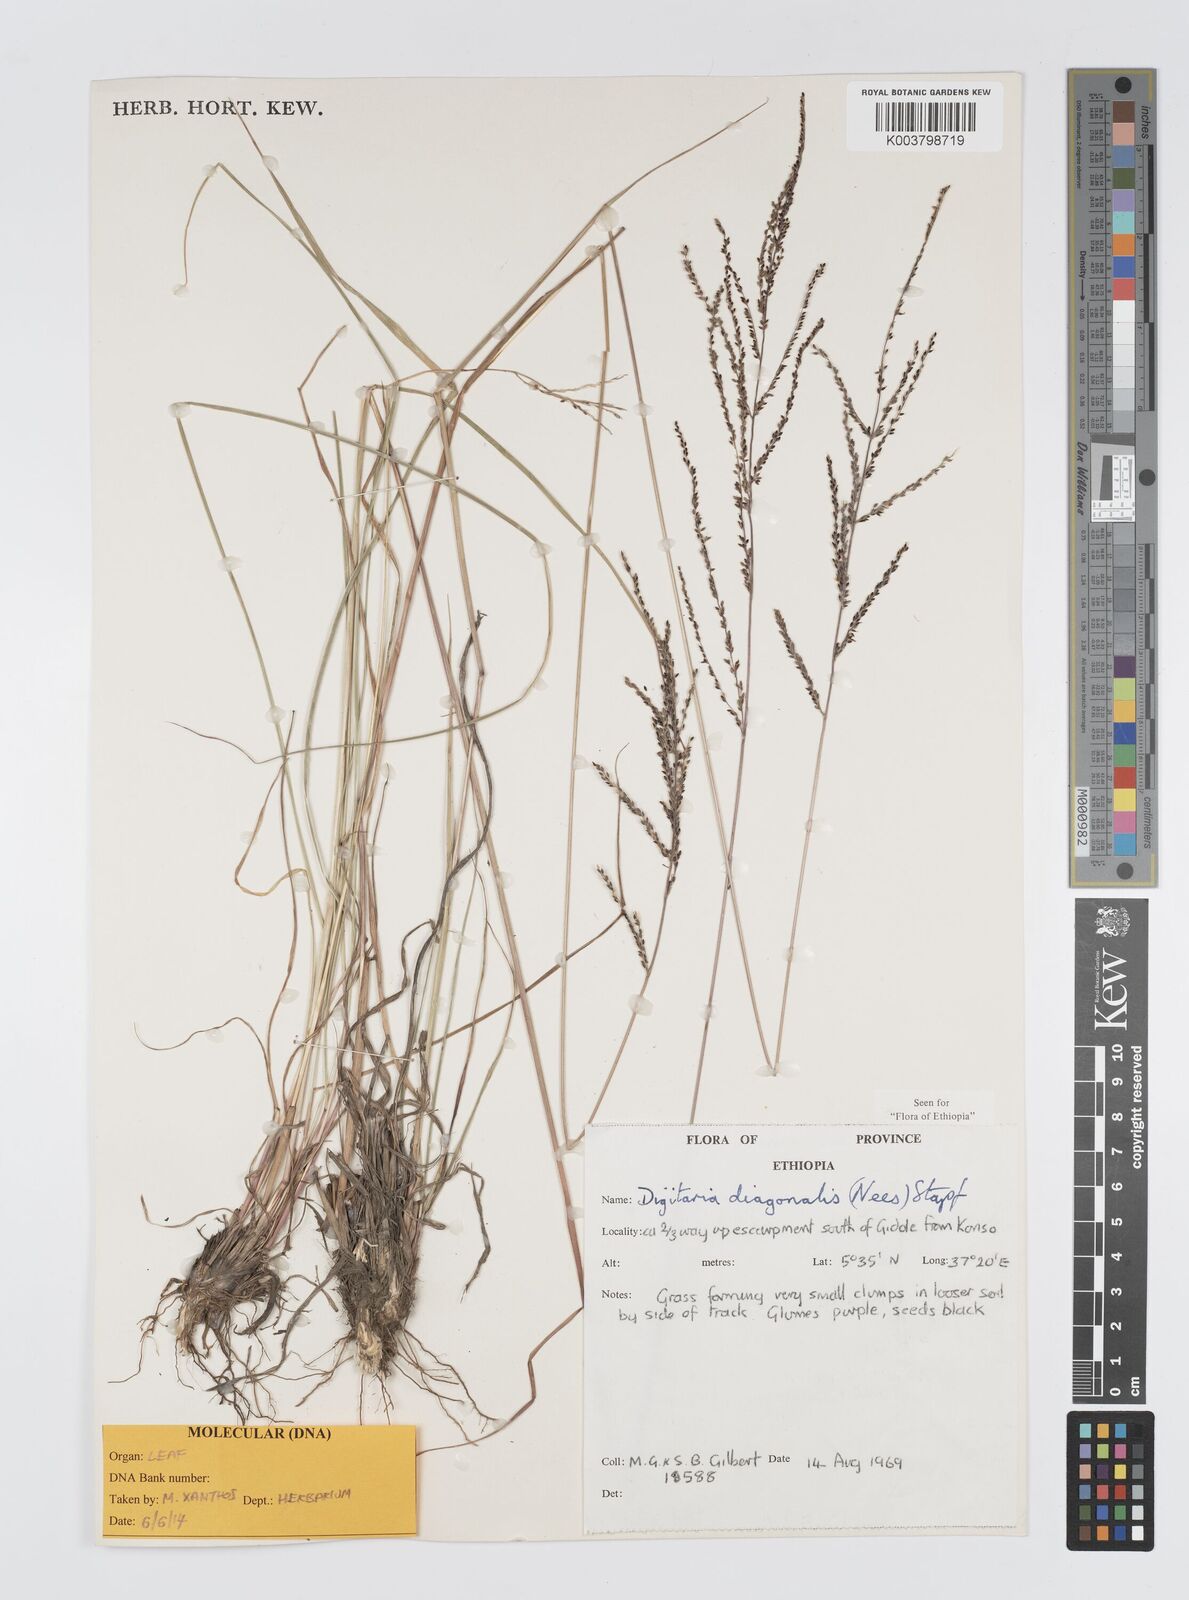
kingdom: Plantae
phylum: Tracheophyta
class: Liliopsida
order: Poales
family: Poaceae
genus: Digitaria
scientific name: Digitaria diagonalis
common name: Brown-seed finger grass
